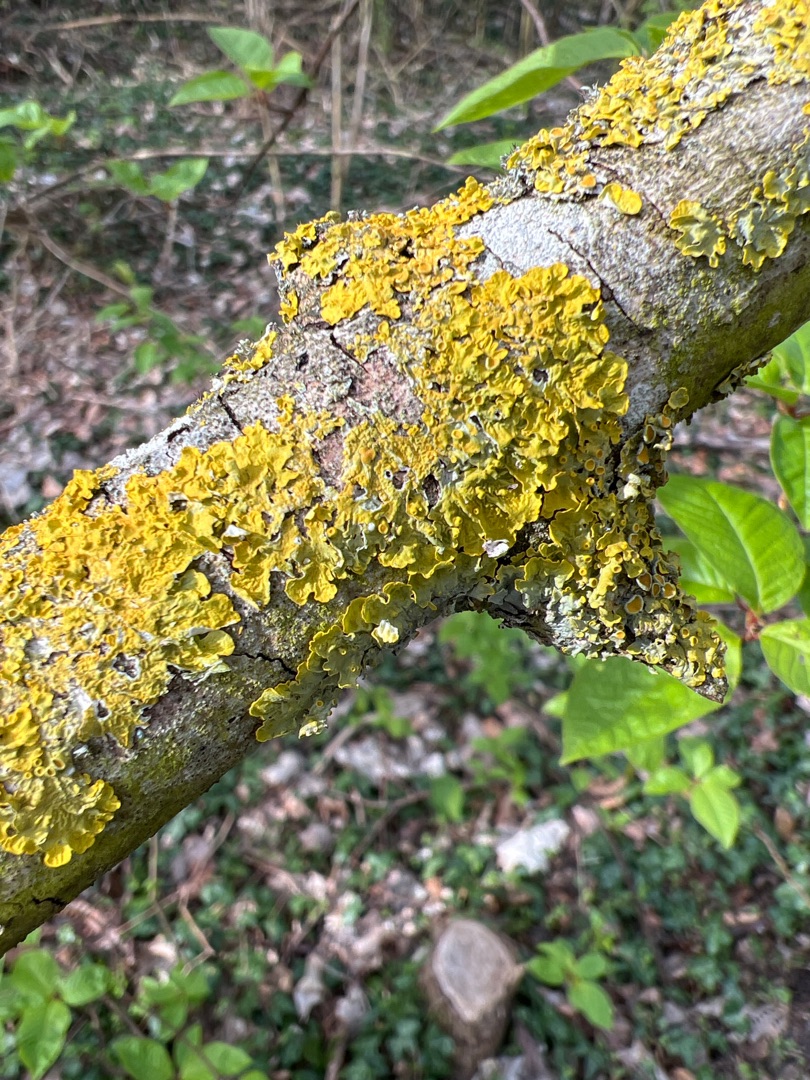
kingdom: Fungi
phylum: Ascomycota
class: Lecanoromycetes
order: Teloschistales
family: Teloschistaceae
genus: Xanthoria
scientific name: Xanthoria parietina
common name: Almindelig væggelav
